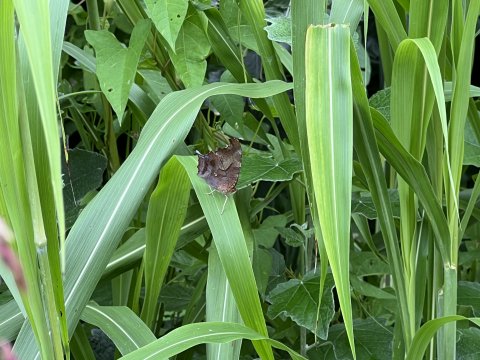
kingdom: Animalia
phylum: Arthropoda
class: Insecta
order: Lepidoptera
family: Nymphalidae
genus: Polygonia
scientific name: Polygonia interrogationis
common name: Question Mark
